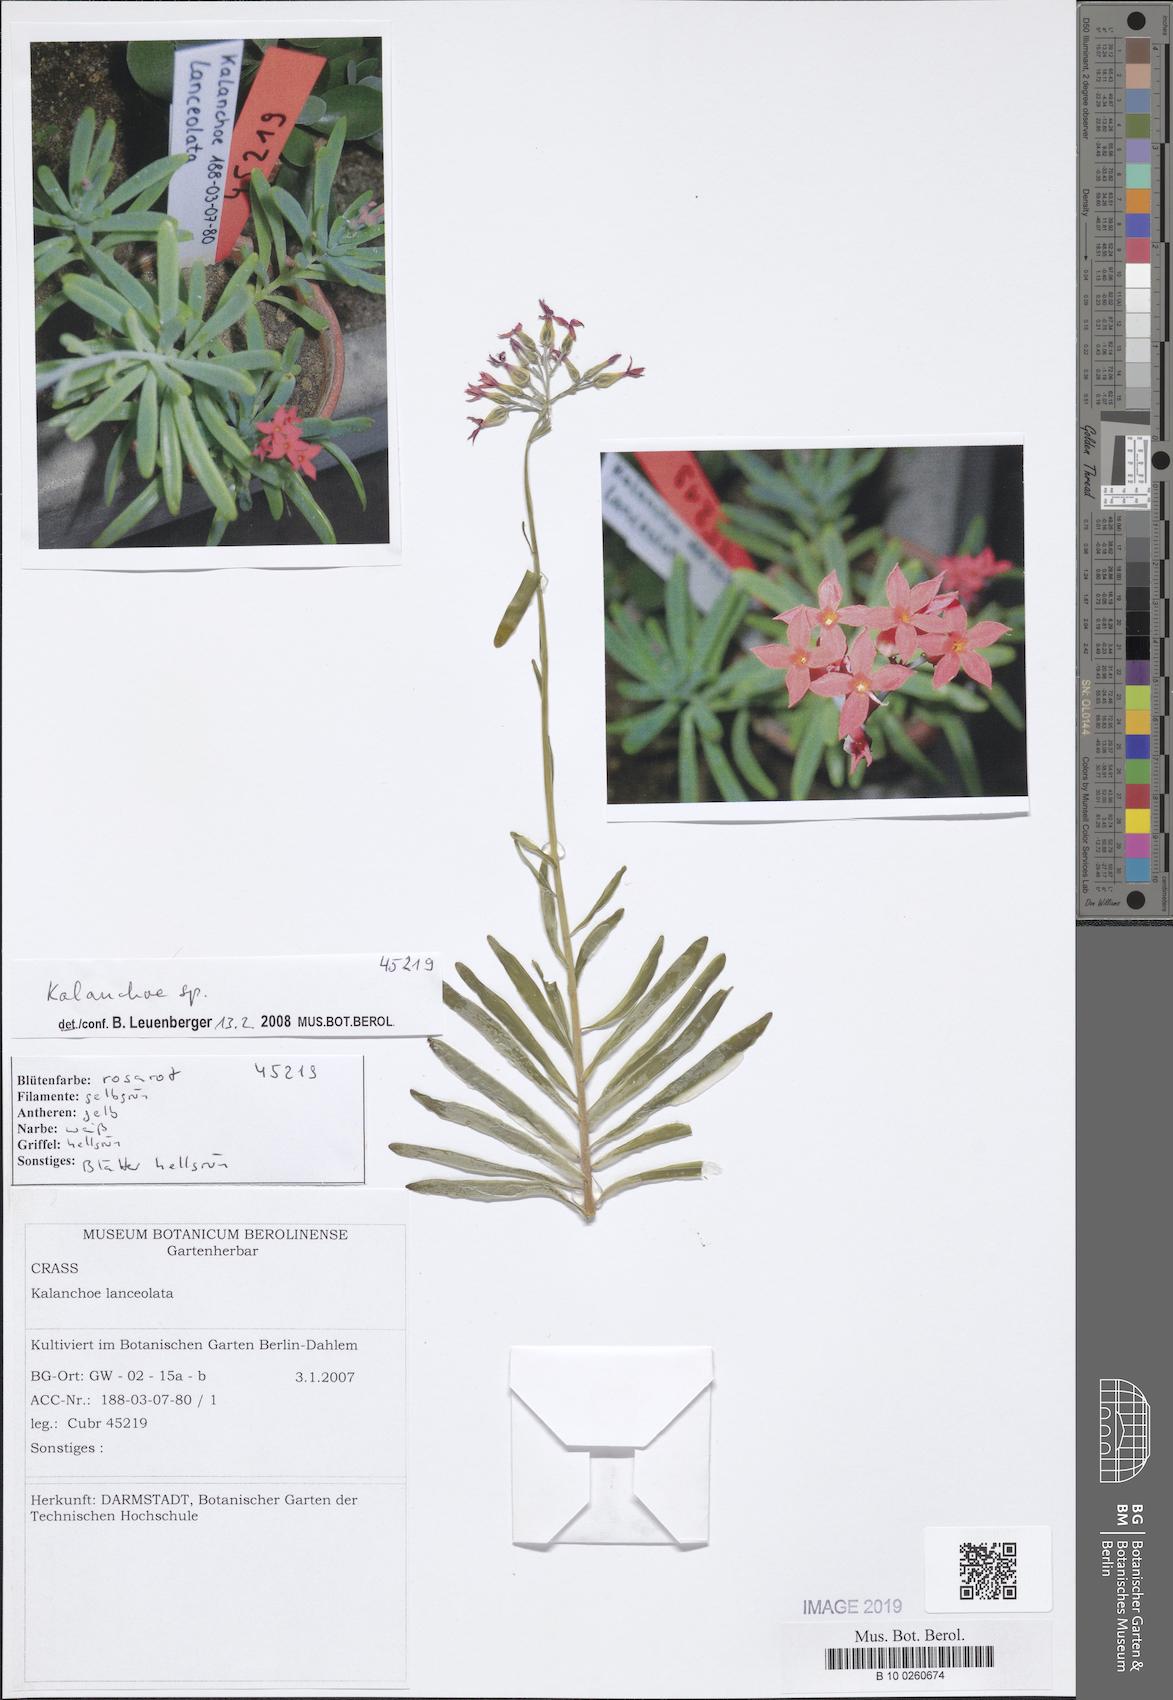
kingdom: Plantae
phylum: Tracheophyta
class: Magnoliopsida
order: Saxifragales
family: Crassulaceae
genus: Kalanchoe
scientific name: Kalanchoe
